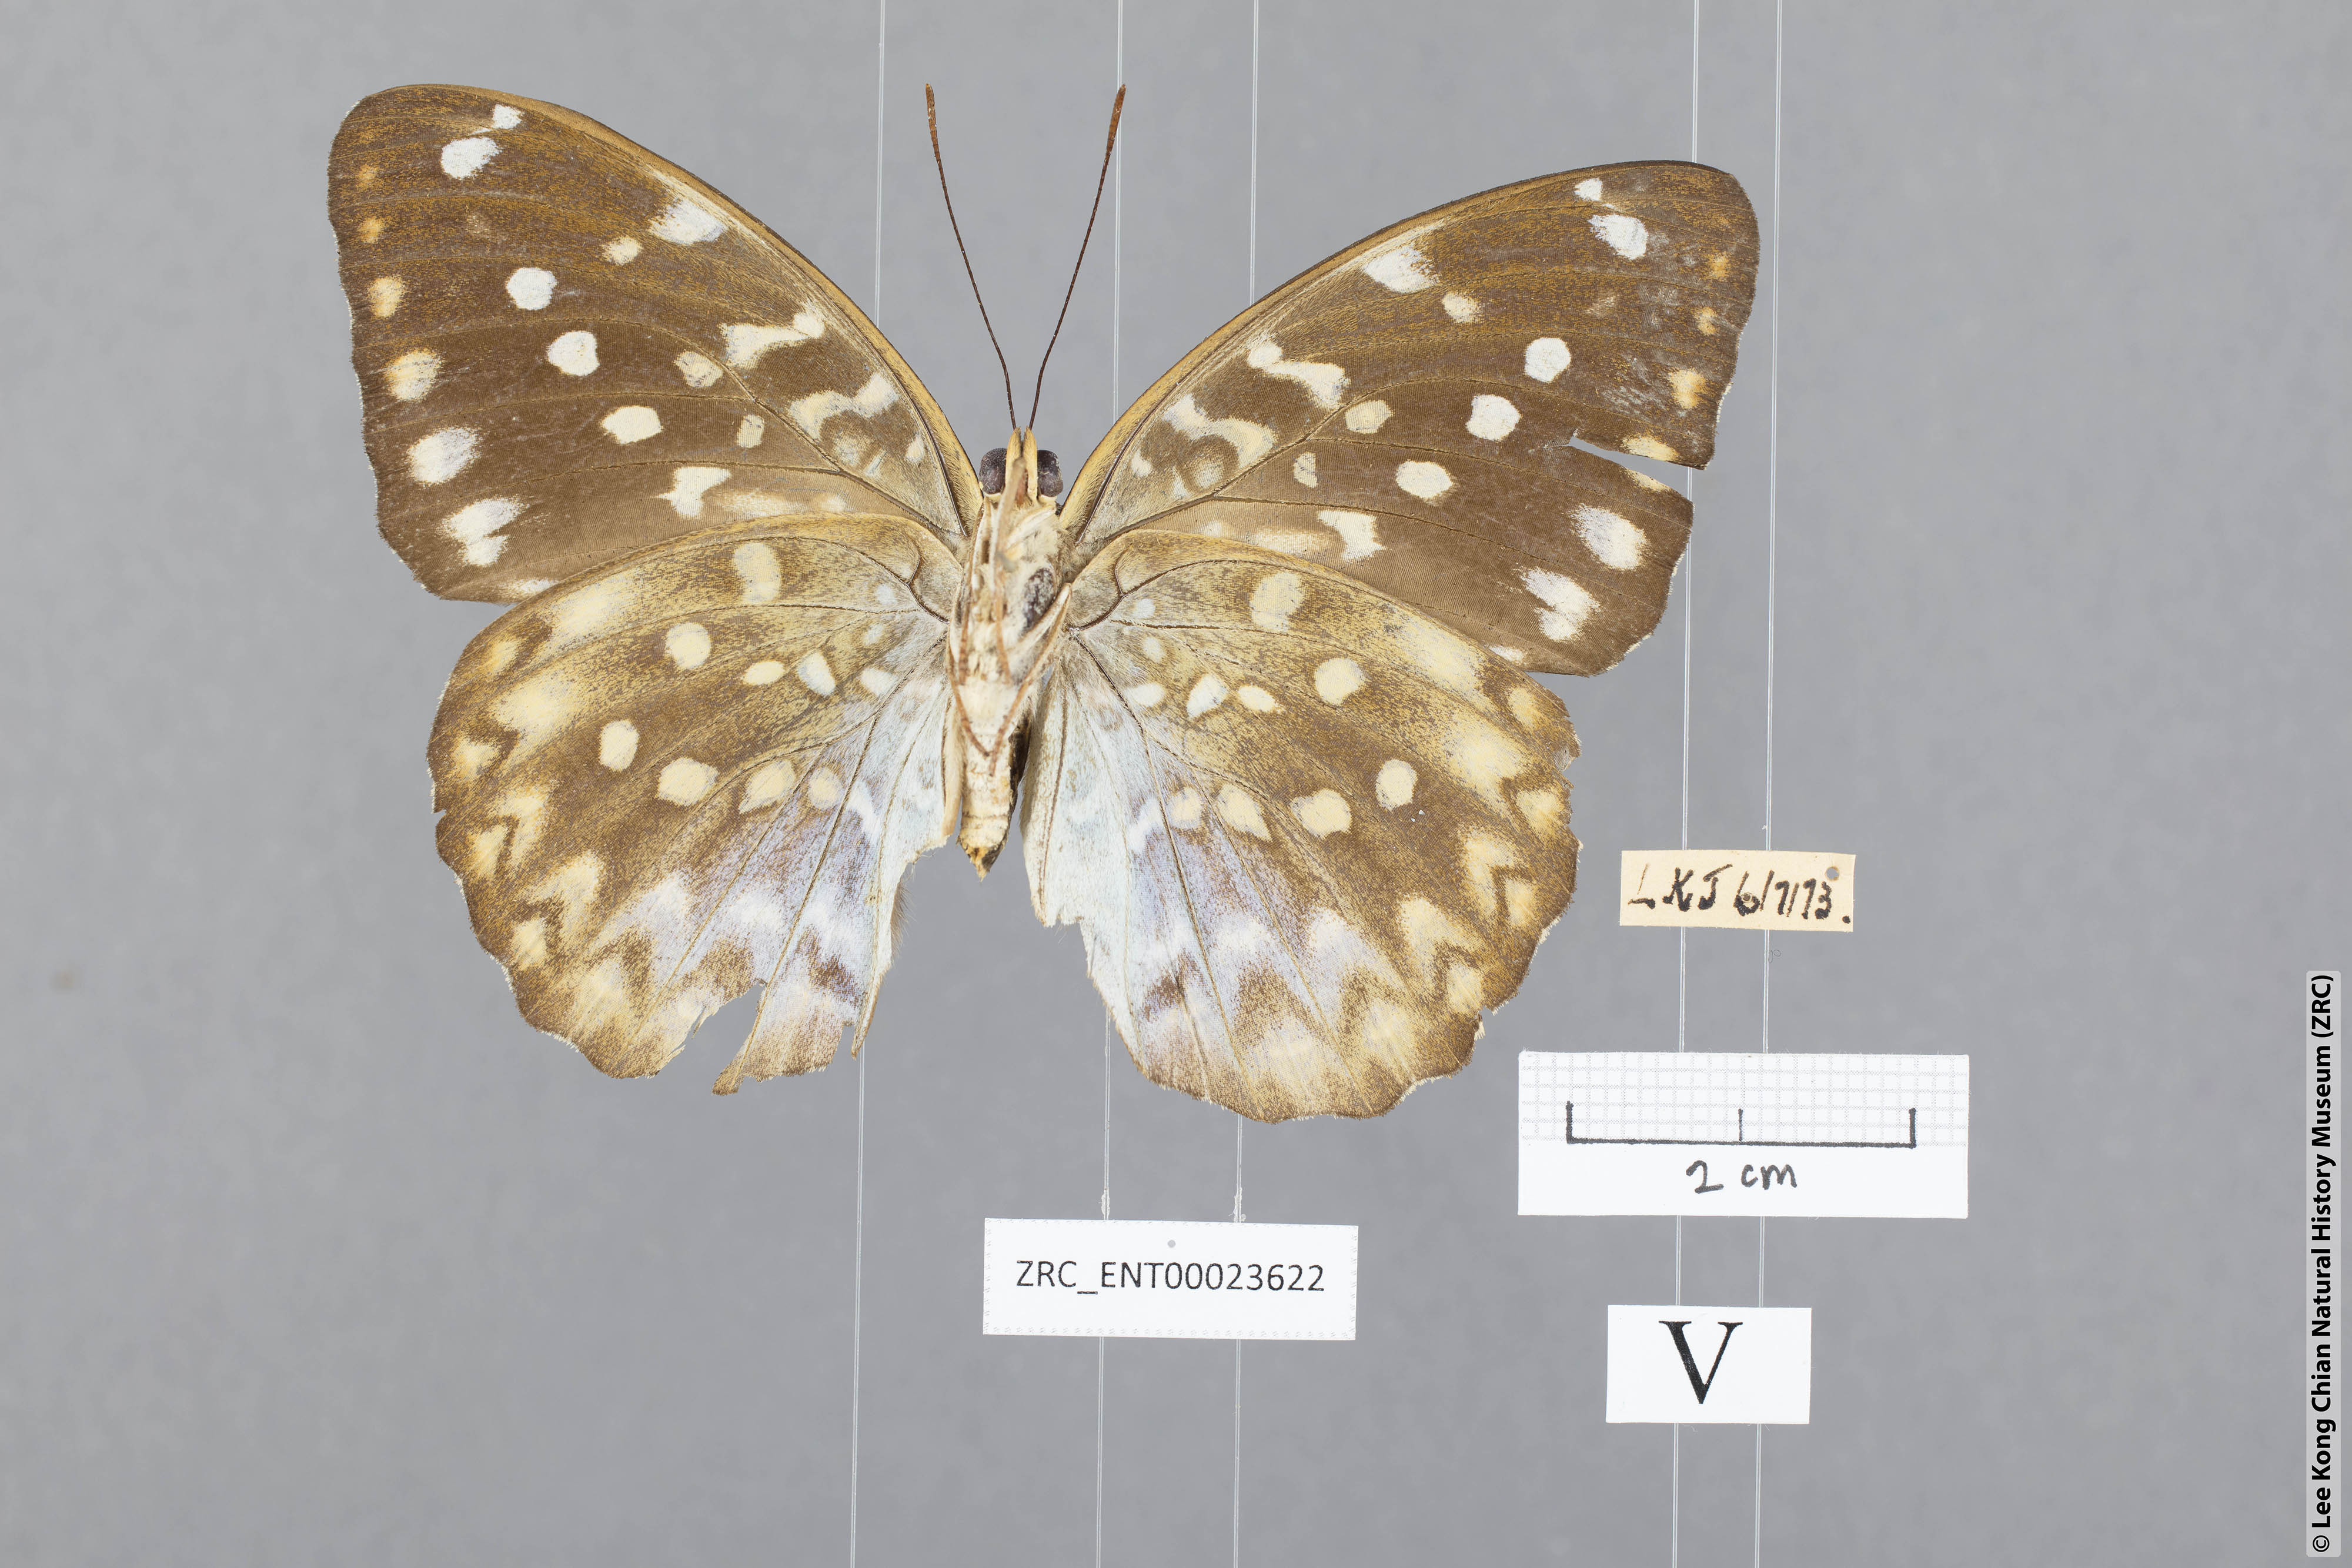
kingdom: Animalia
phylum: Arthropoda
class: Insecta
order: Lepidoptera
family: Nymphalidae
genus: Lexias
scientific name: Lexias canescens
